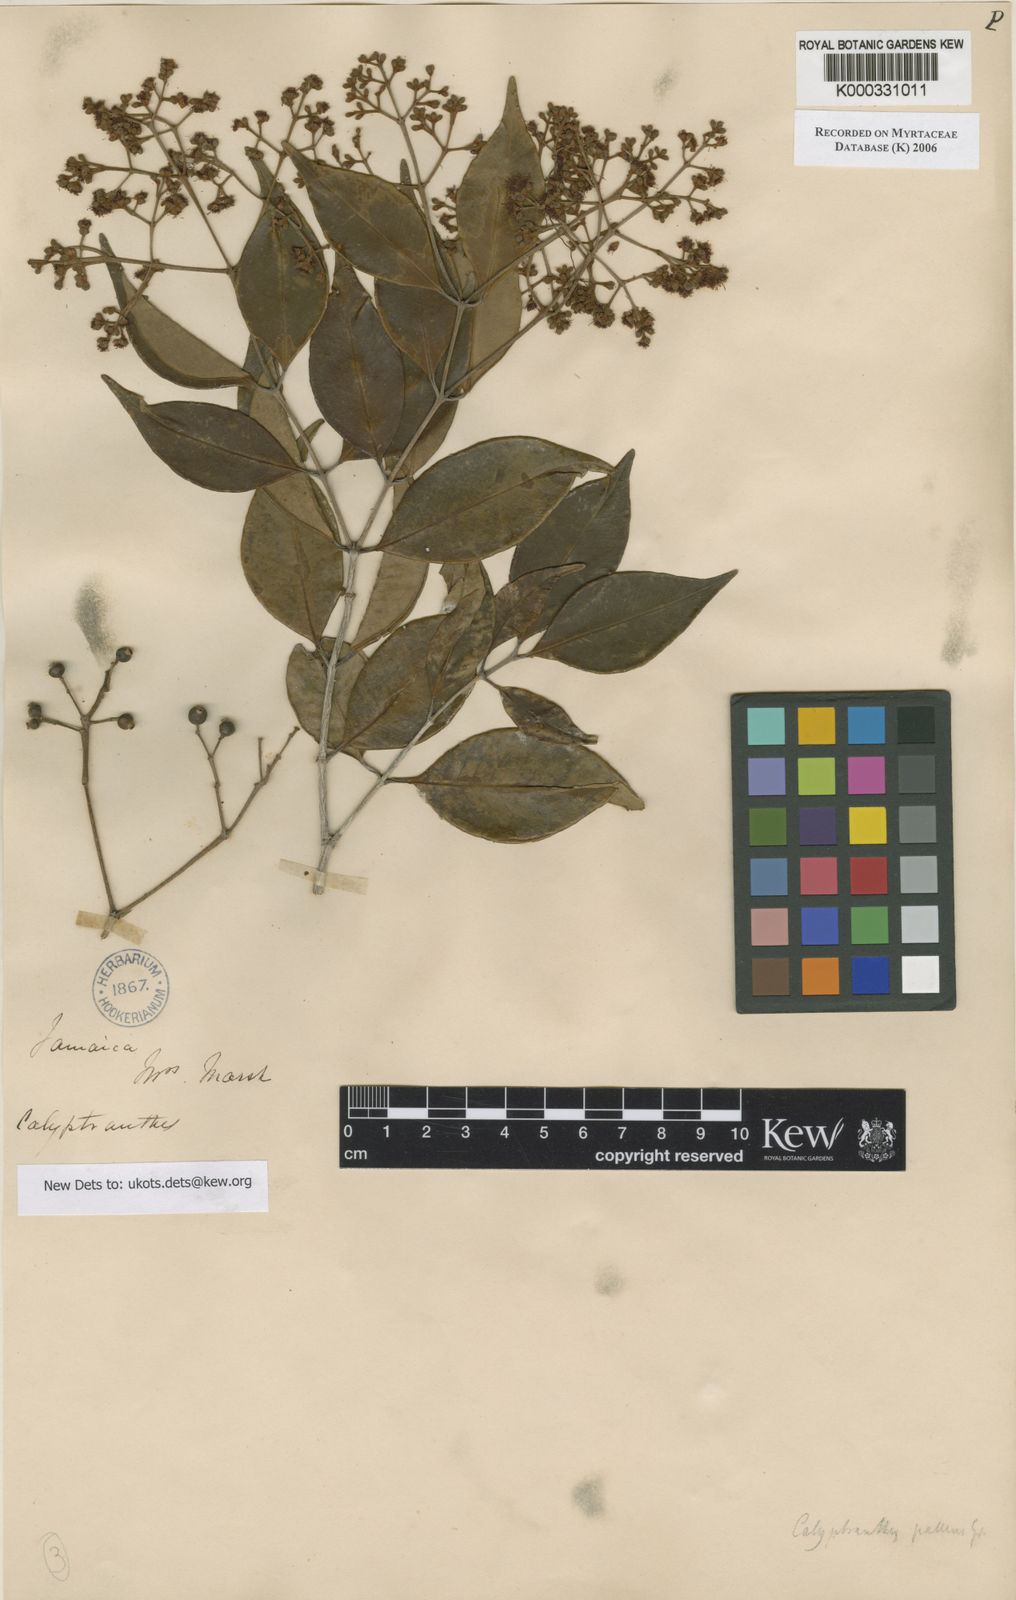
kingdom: Plantae
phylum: Tracheophyta
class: Magnoliopsida
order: Myrtales
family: Myrtaceae
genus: Myrcia
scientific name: Myrcia neopallens
